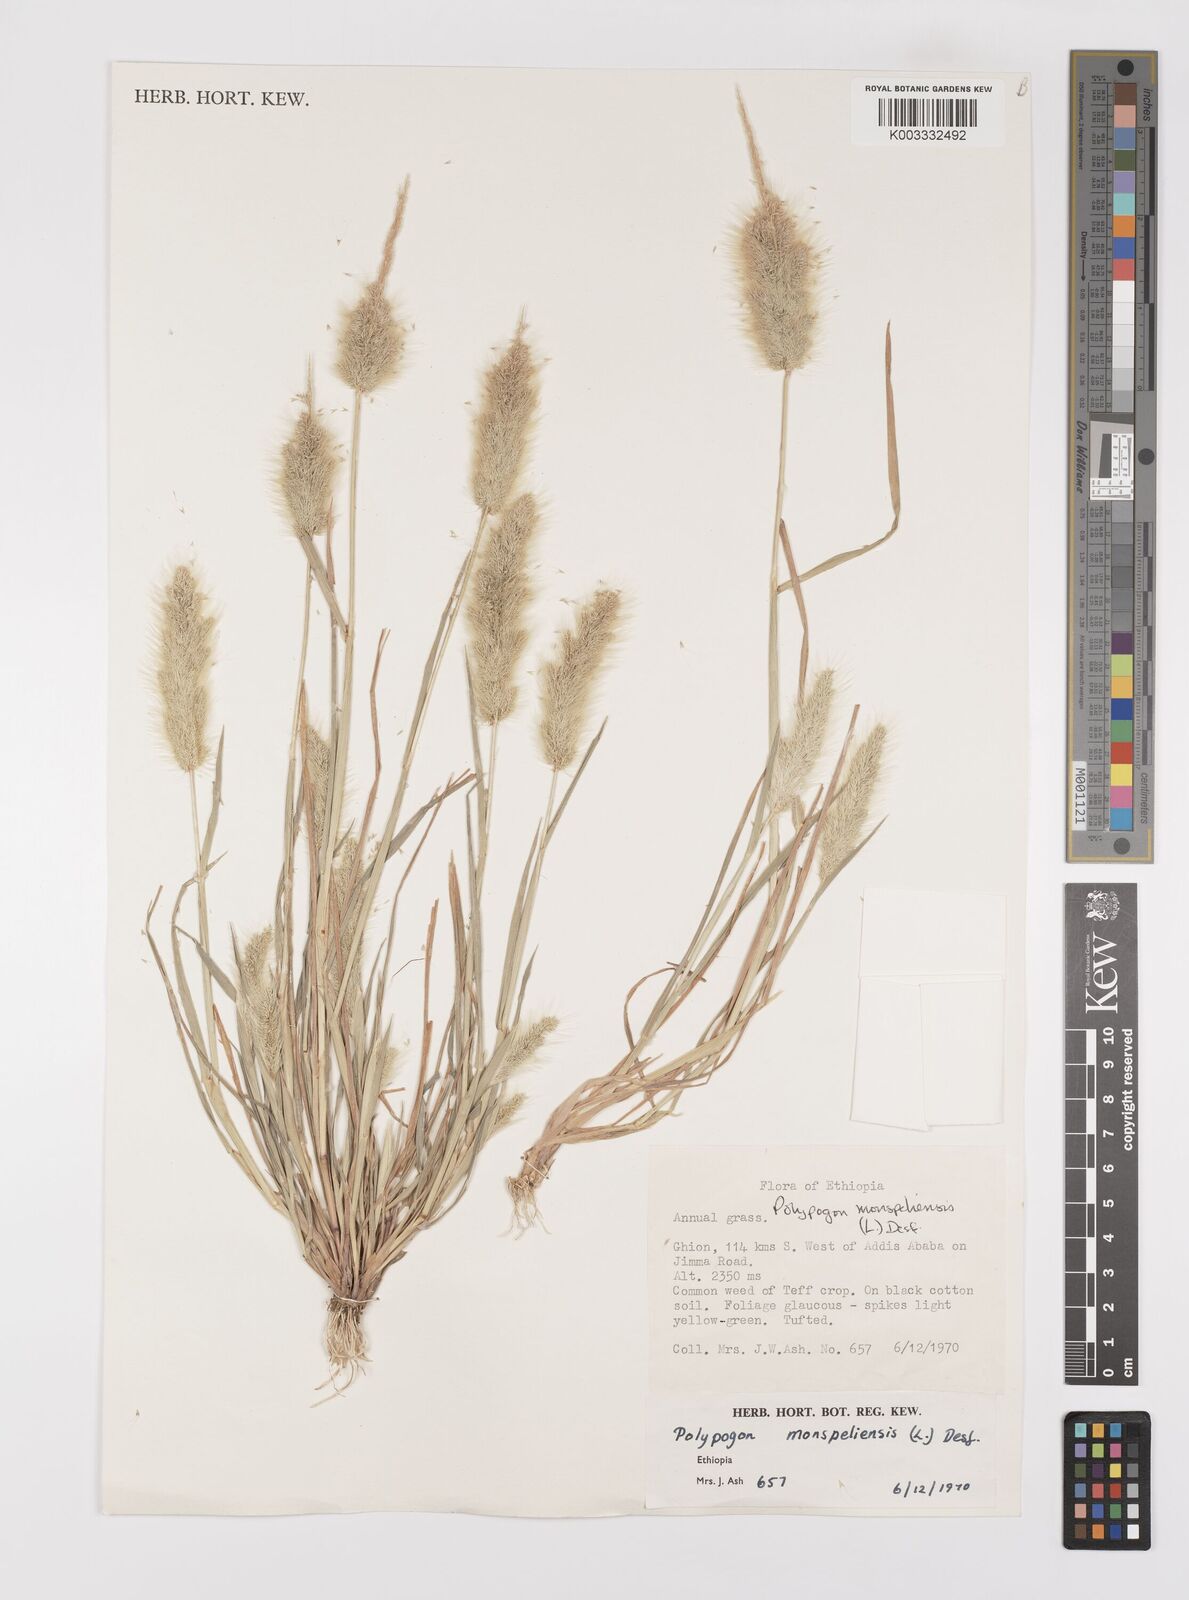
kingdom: Plantae
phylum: Tracheophyta
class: Liliopsida
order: Poales
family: Poaceae
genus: Polypogon
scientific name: Polypogon monspeliensis
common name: Annual rabbitsfoot grass
